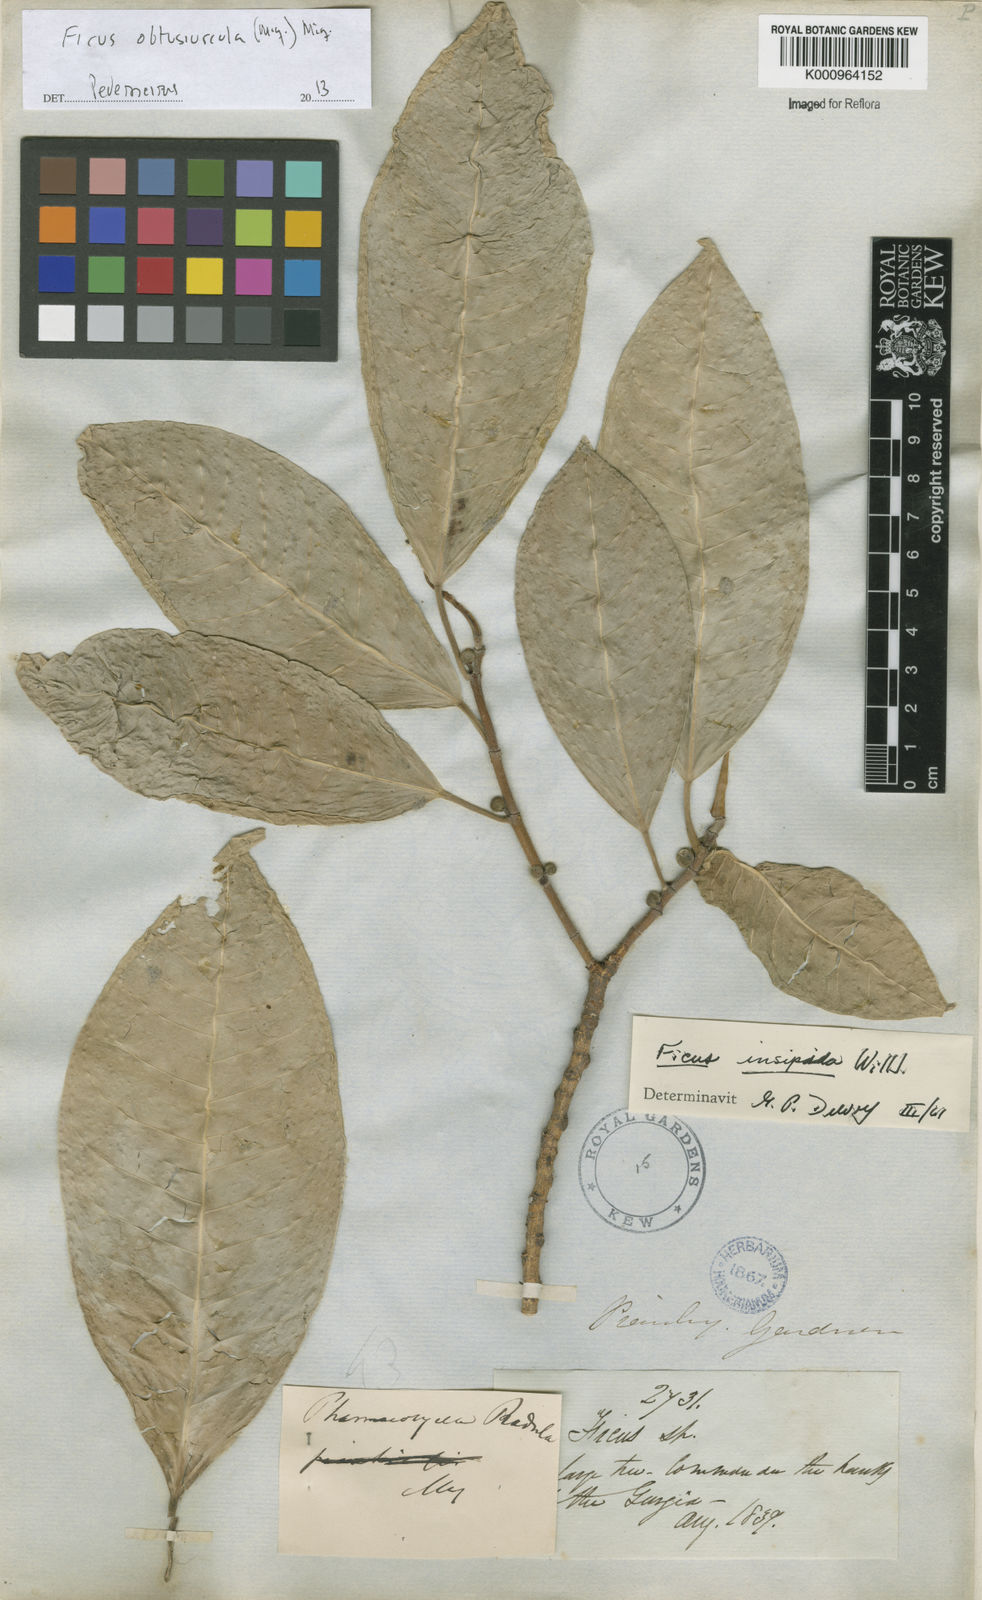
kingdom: Plantae
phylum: Tracheophyta
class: Magnoliopsida
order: Rosales
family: Moraceae
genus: Ficus
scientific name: Ficus obtusiuscula
